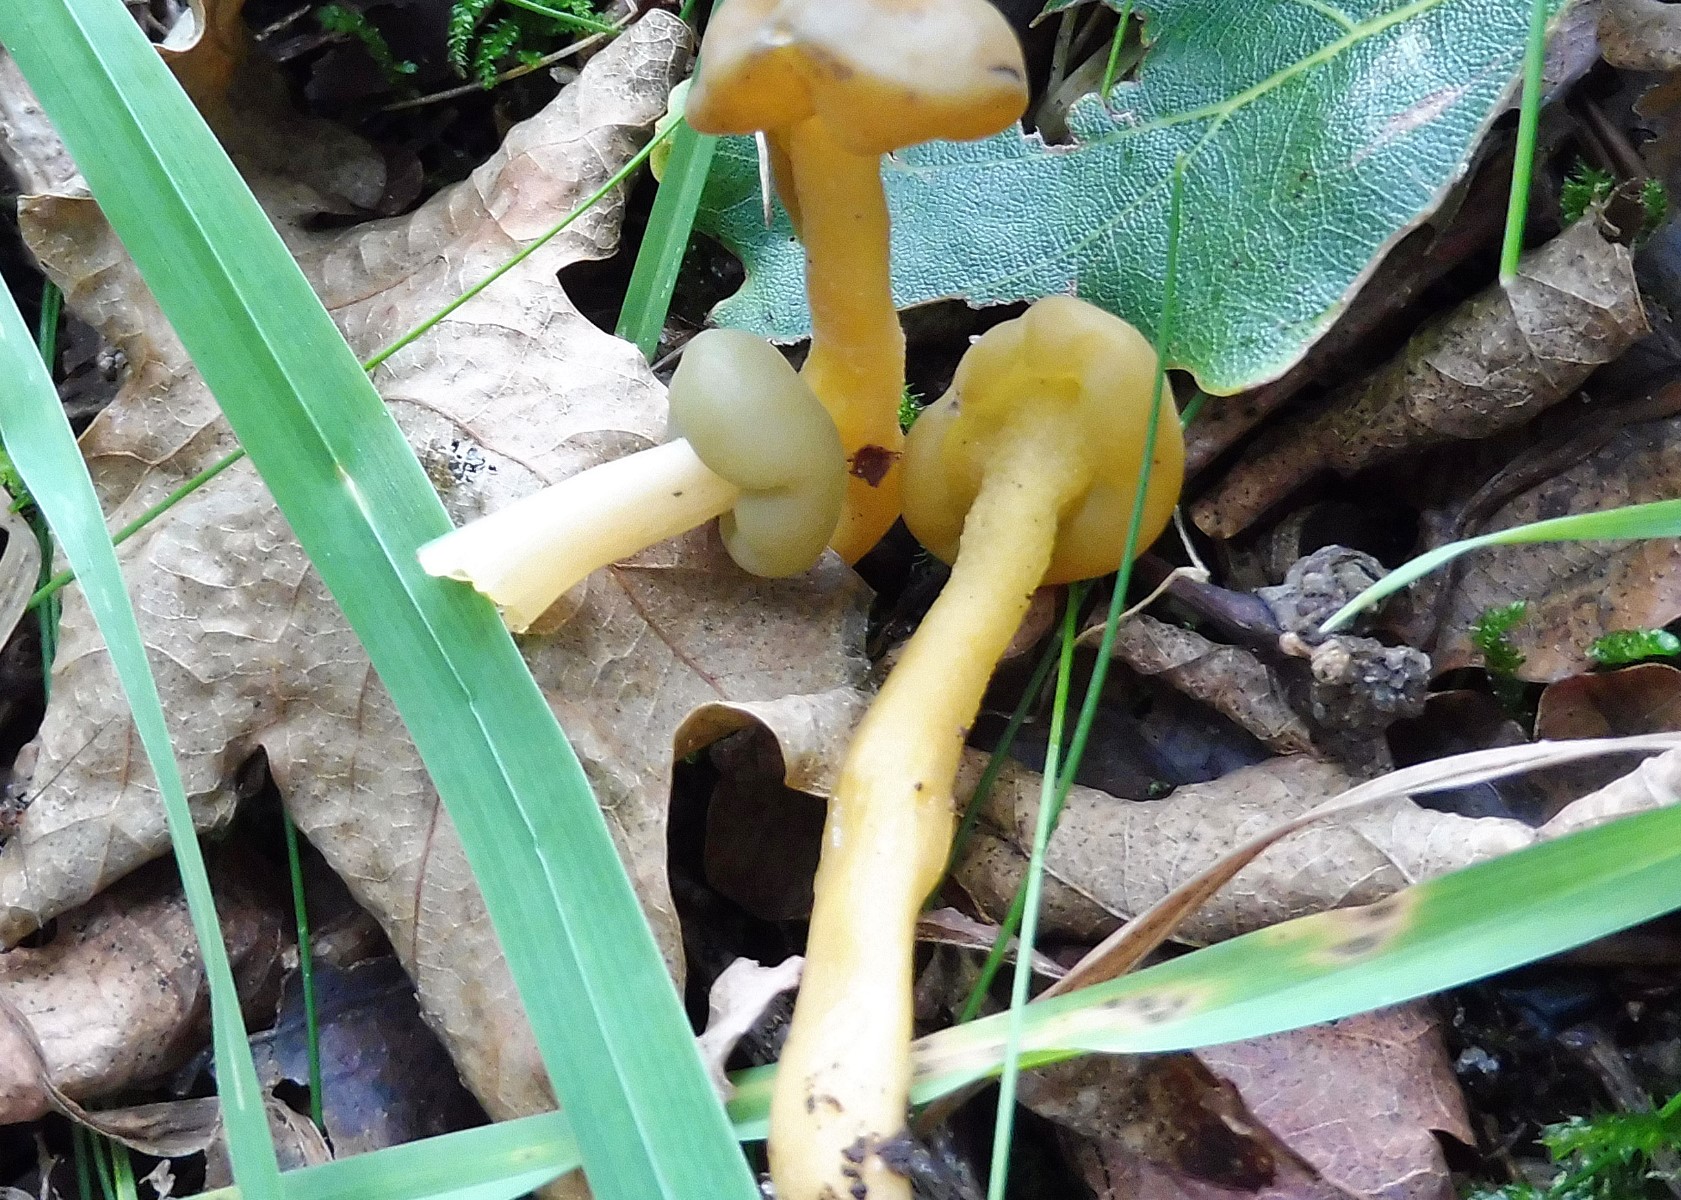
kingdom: Fungi
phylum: Ascomycota
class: Leotiomycetes
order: Leotiales
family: Leotiaceae
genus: Leotia
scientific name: Leotia lubrica
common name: ravsvamp
